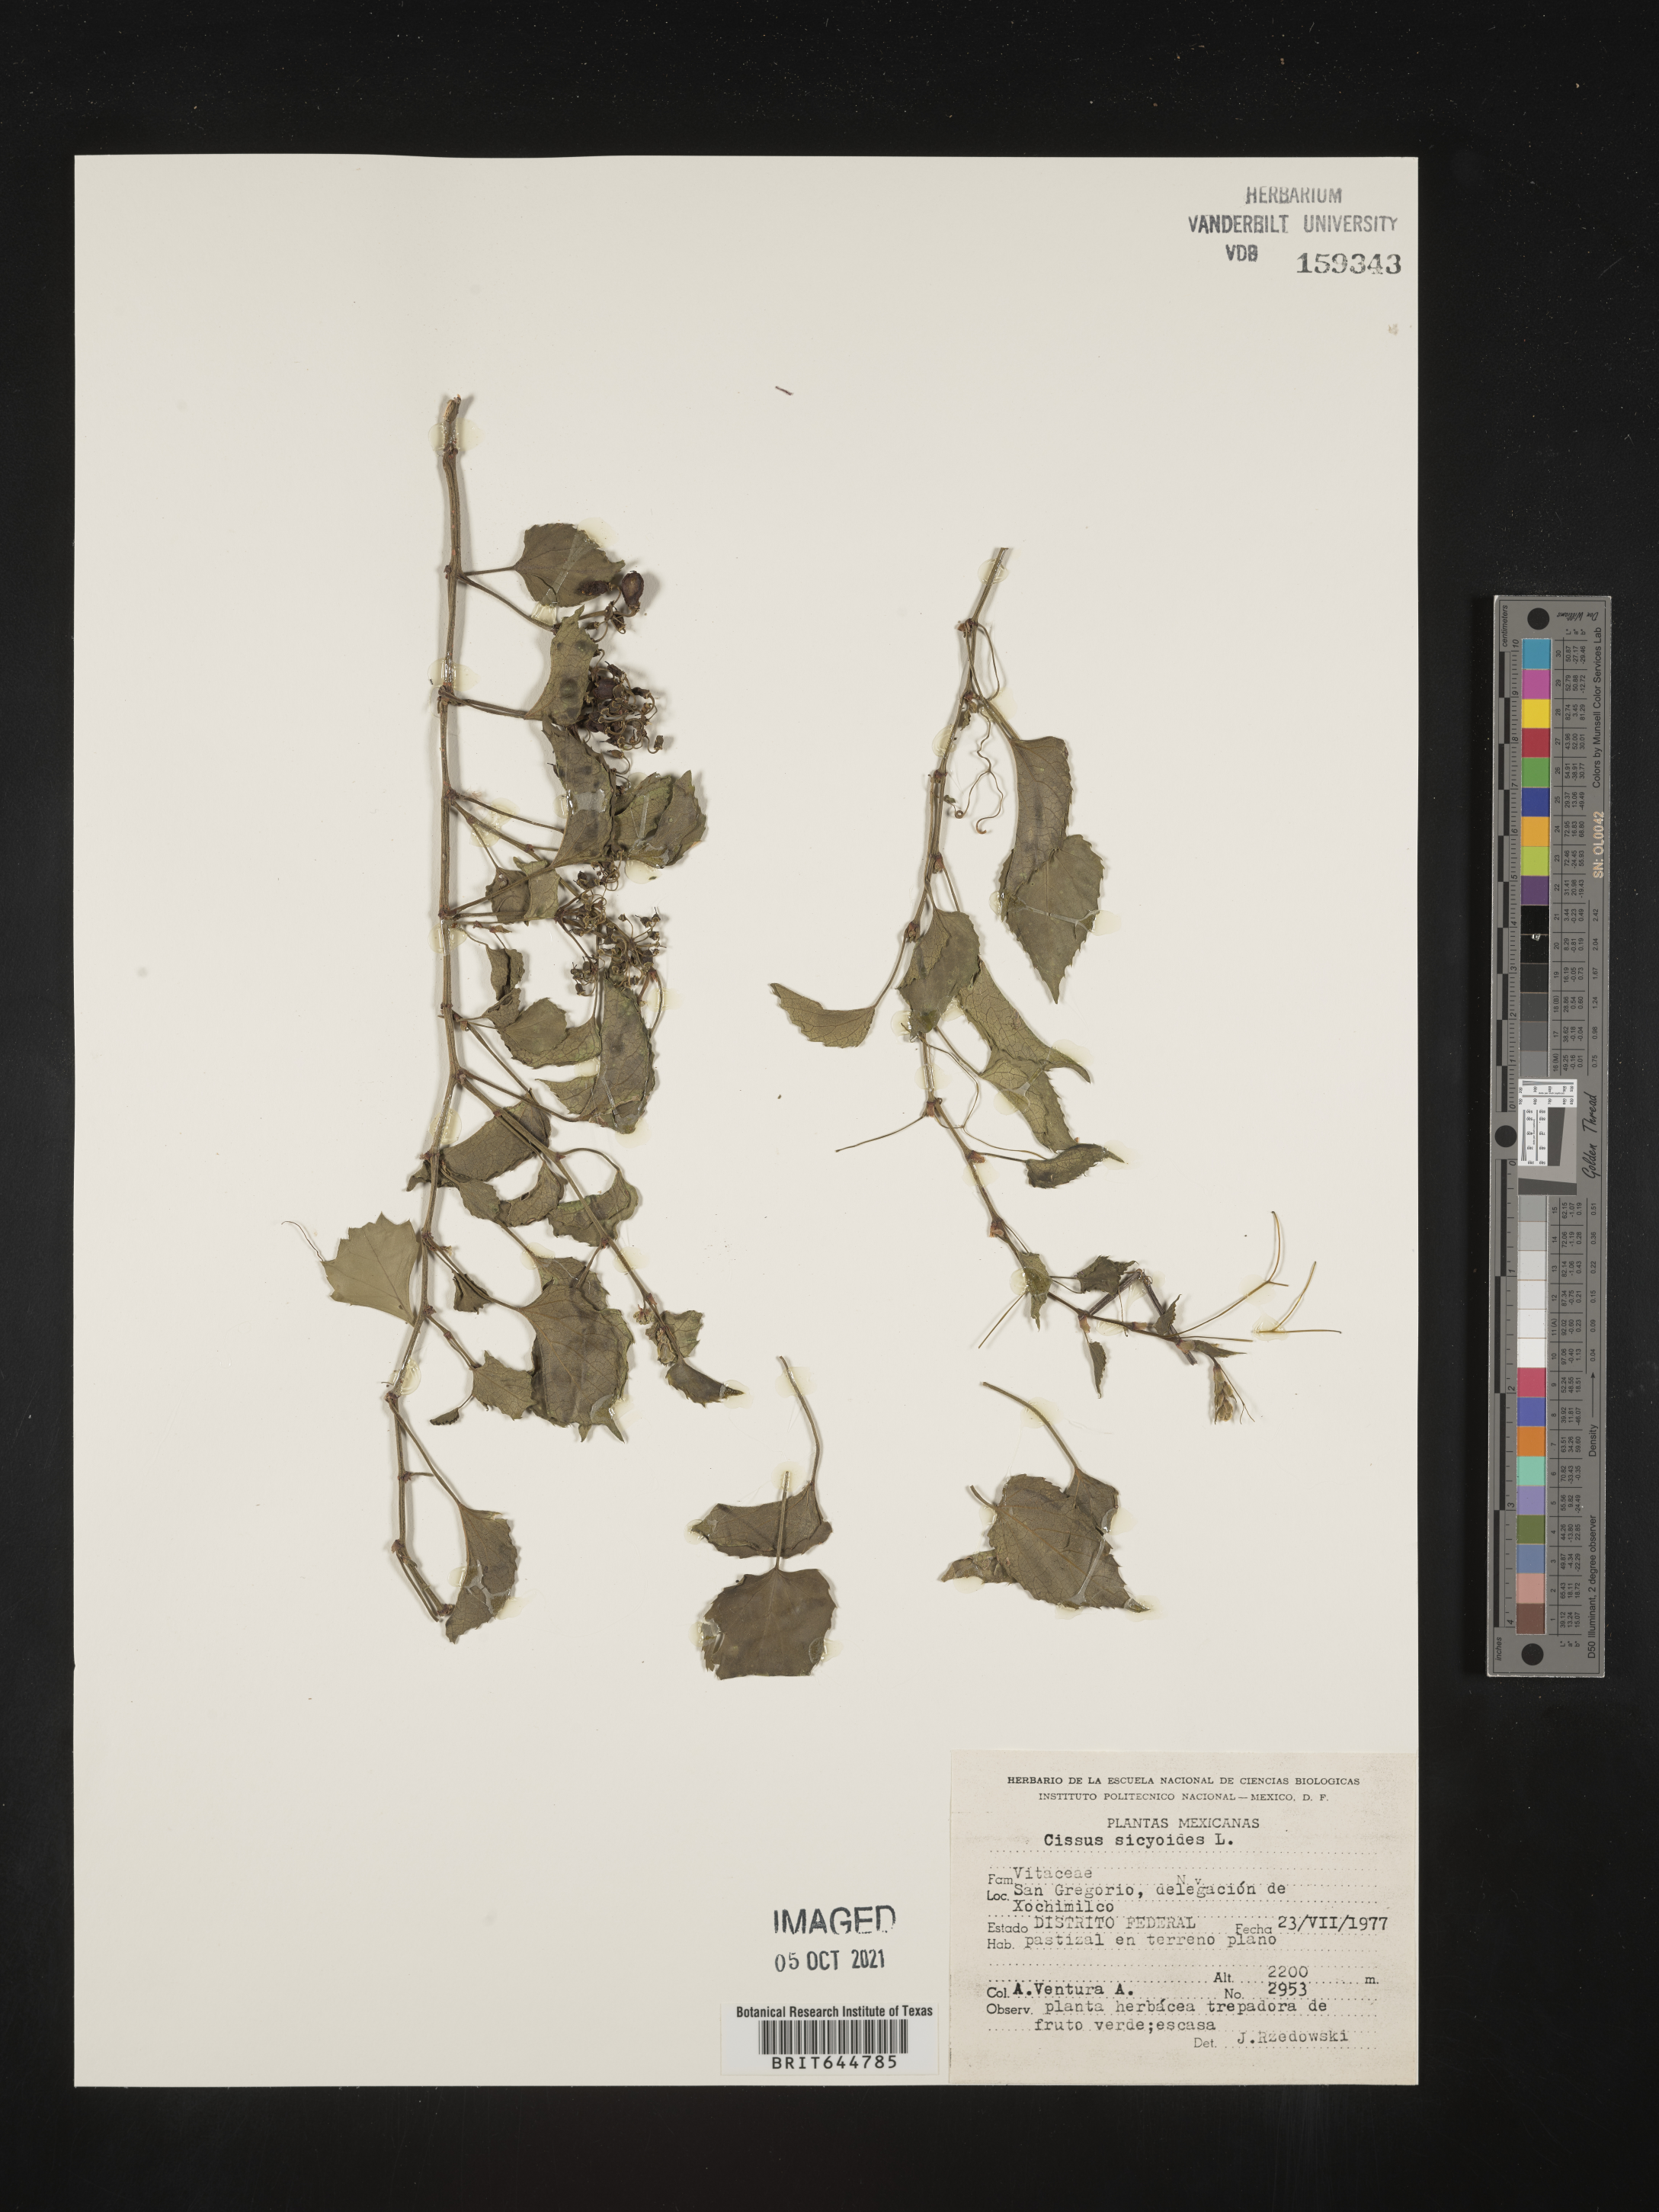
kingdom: Plantae
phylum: Tracheophyta
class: Magnoliopsida
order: Vitales
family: Vitaceae
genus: Cissus
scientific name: Cissus
